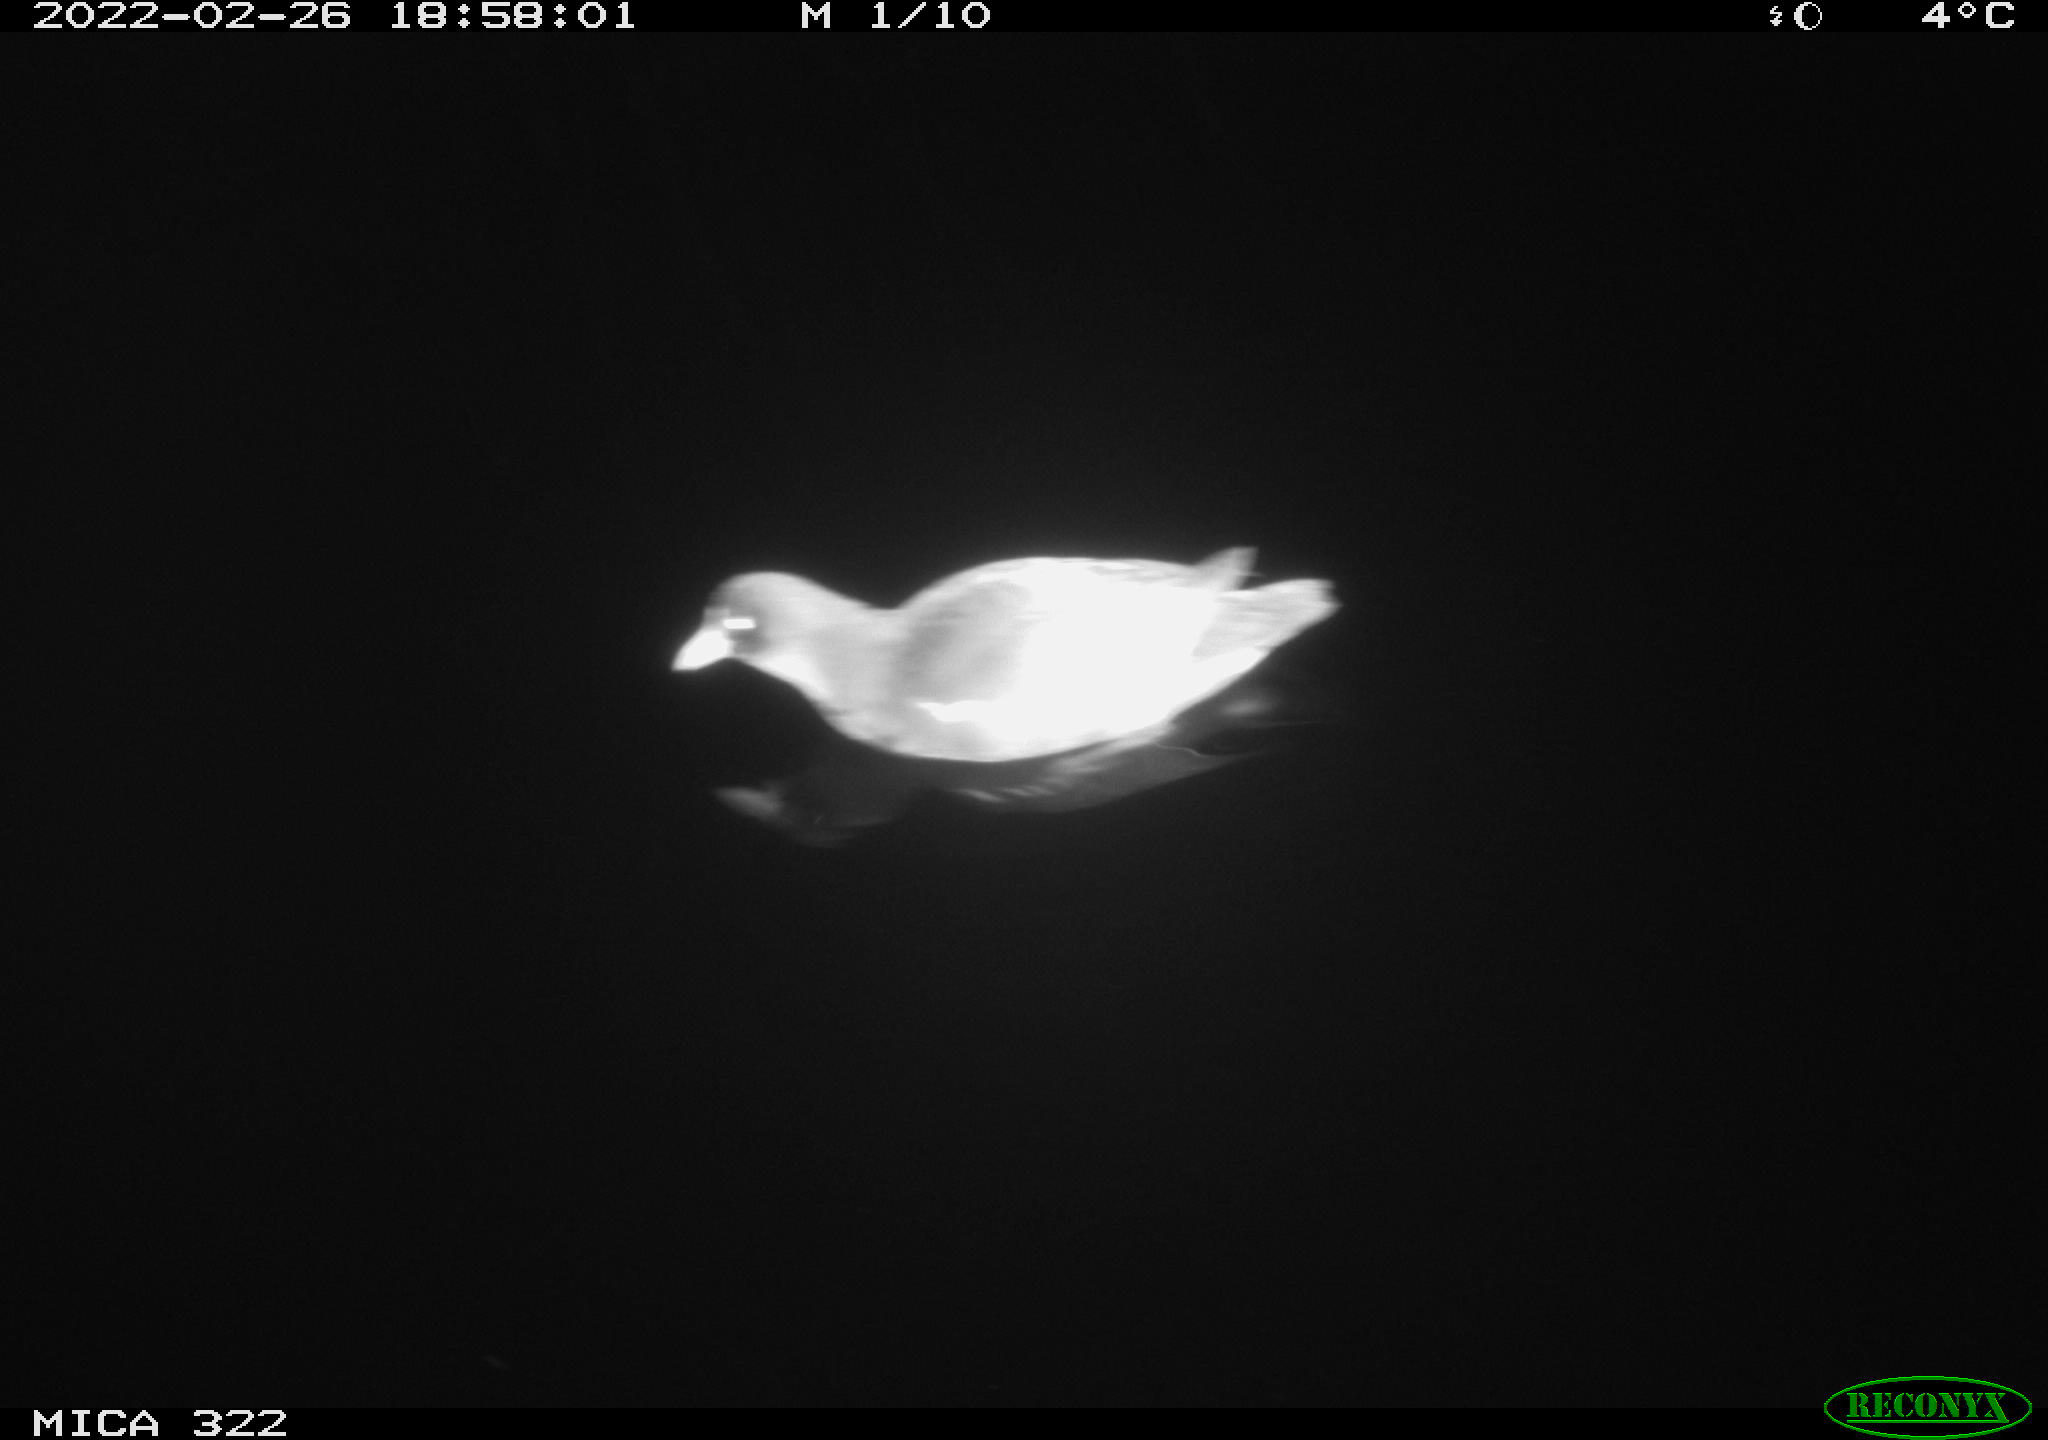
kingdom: Animalia
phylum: Chordata
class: Aves
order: Gruiformes
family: Rallidae
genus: Gallinula
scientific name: Gallinula chloropus
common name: Common moorhen
